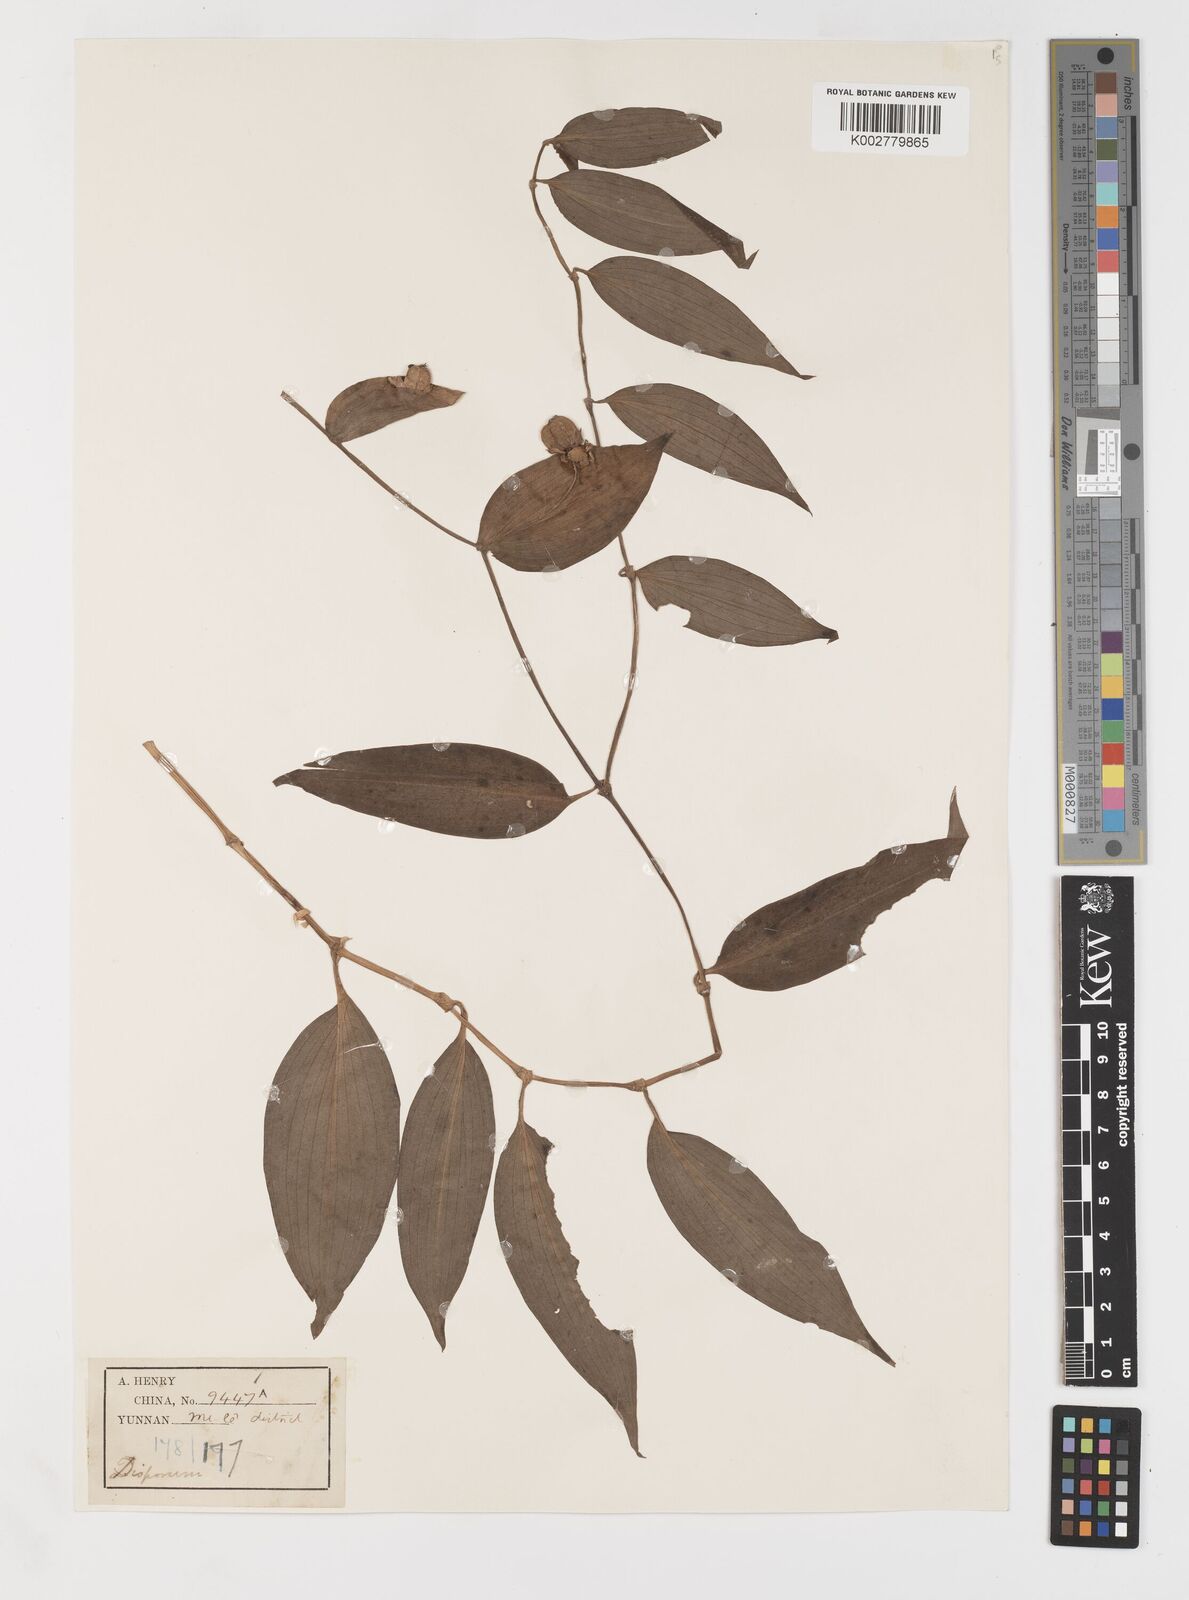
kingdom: Plantae
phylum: Tracheophyta
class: Liliopsida
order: Liliales
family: Colchicaceae
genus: Disporum
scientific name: Disporum
